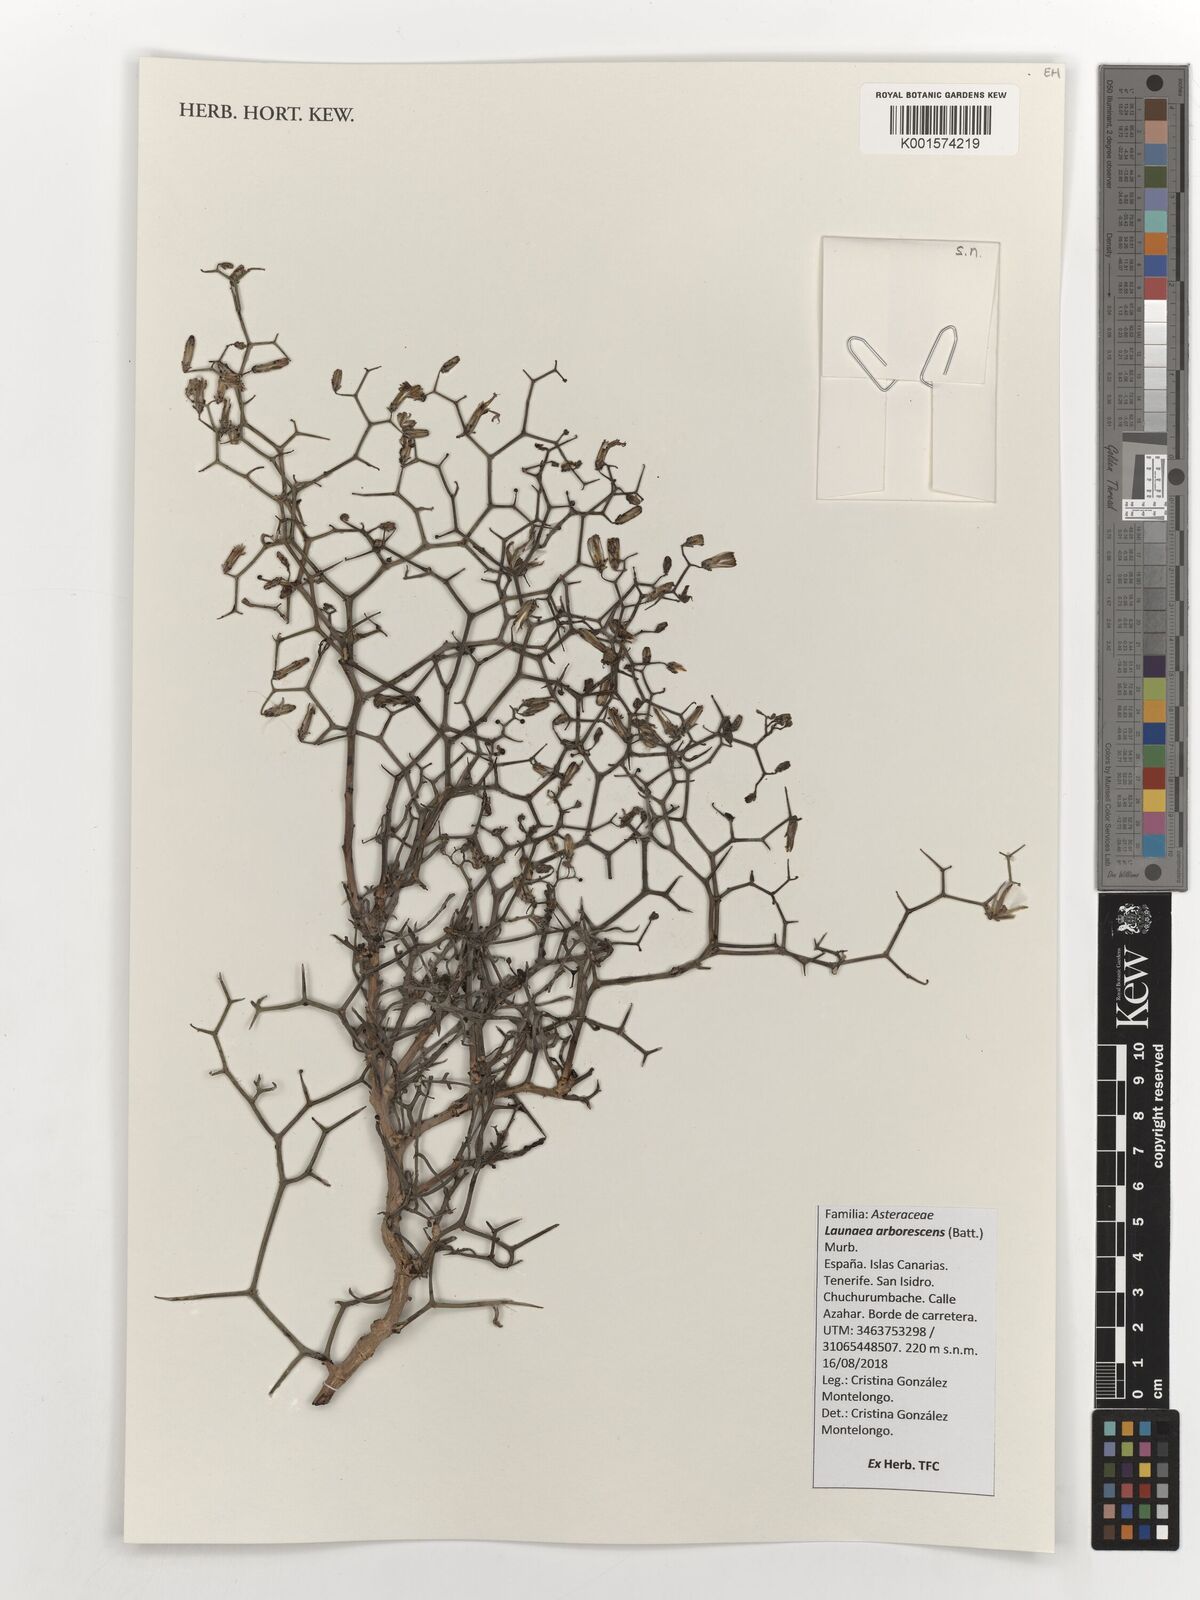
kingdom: Plantae
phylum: Tracheophyta
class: Magnoliopsida
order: Asterales
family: Asteraceae
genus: Launaea
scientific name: Launaea arborescens
